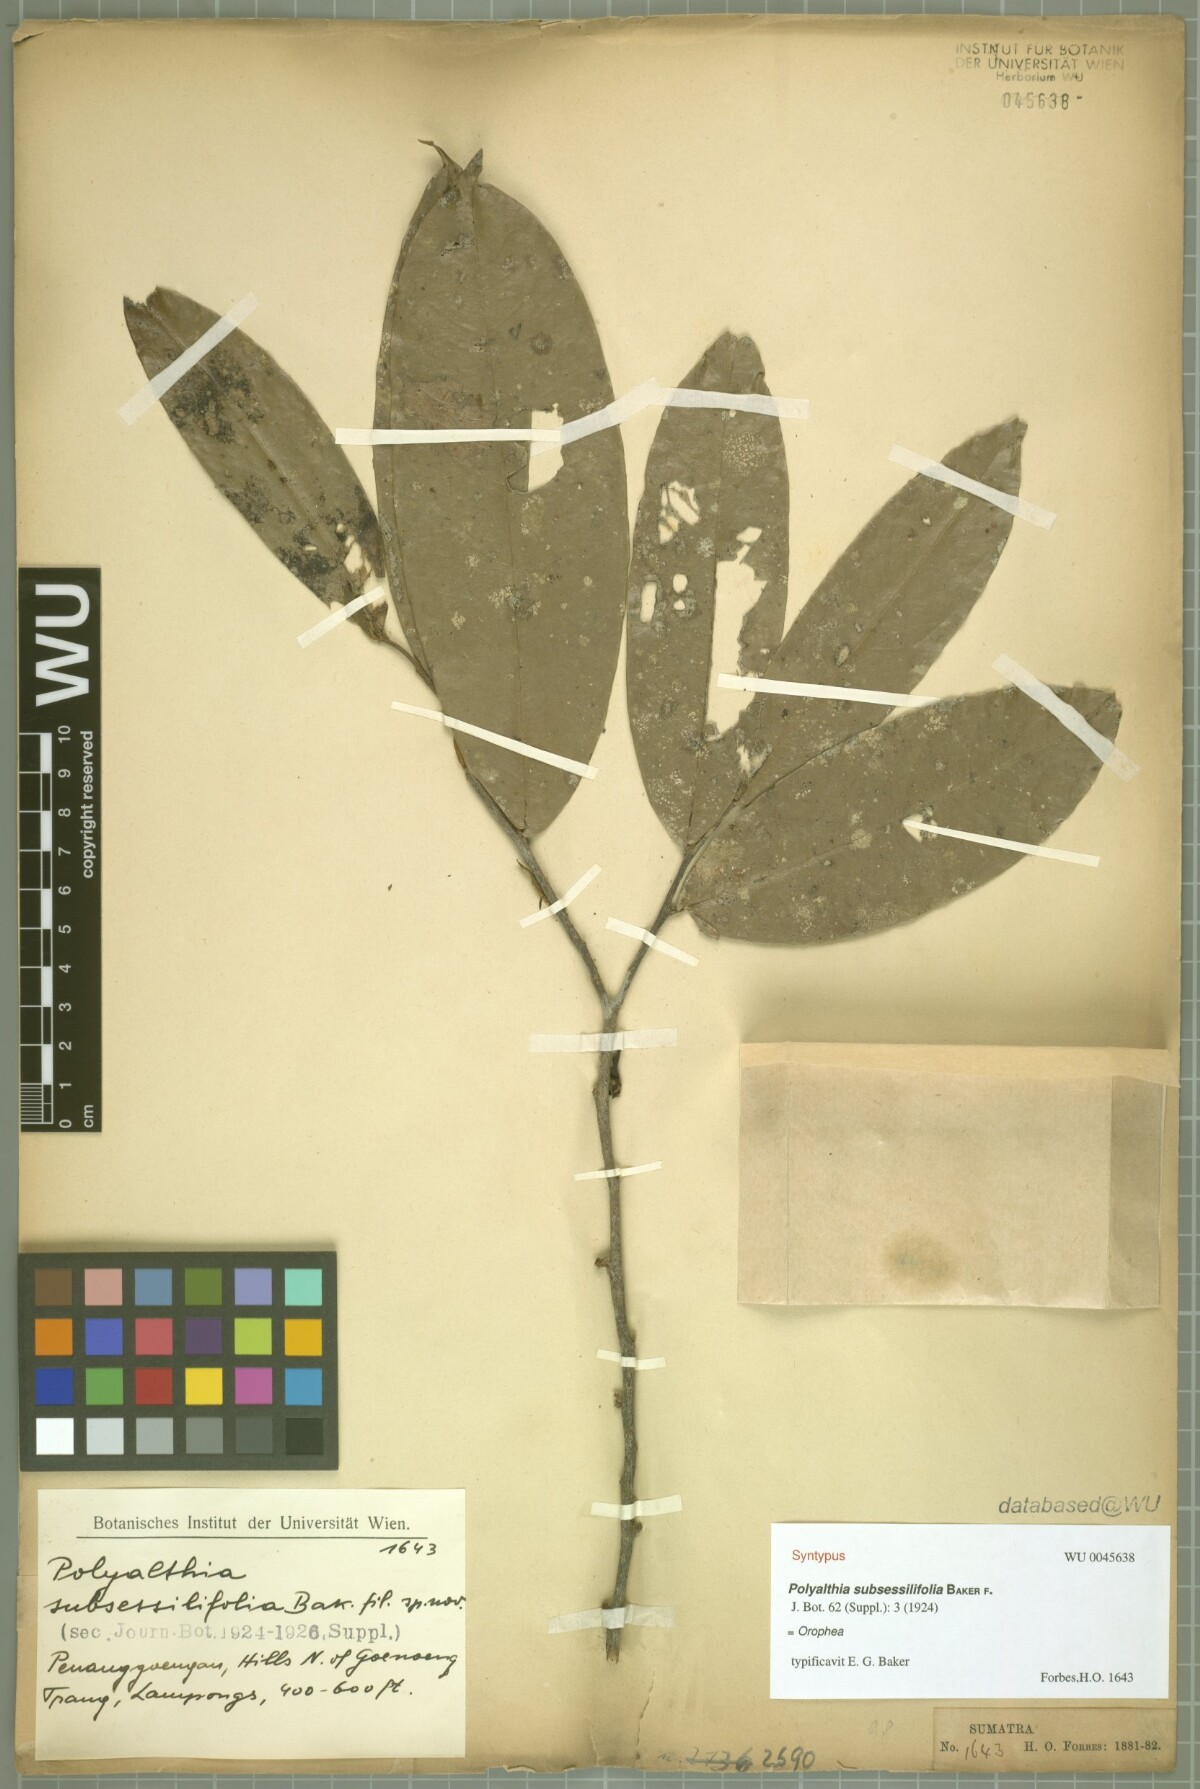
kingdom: Plantae
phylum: Tracheophyta
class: Magnoliopsida
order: Magnoliales
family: Annonaceae
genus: Polyalthia
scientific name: Polyalthia obliqua
